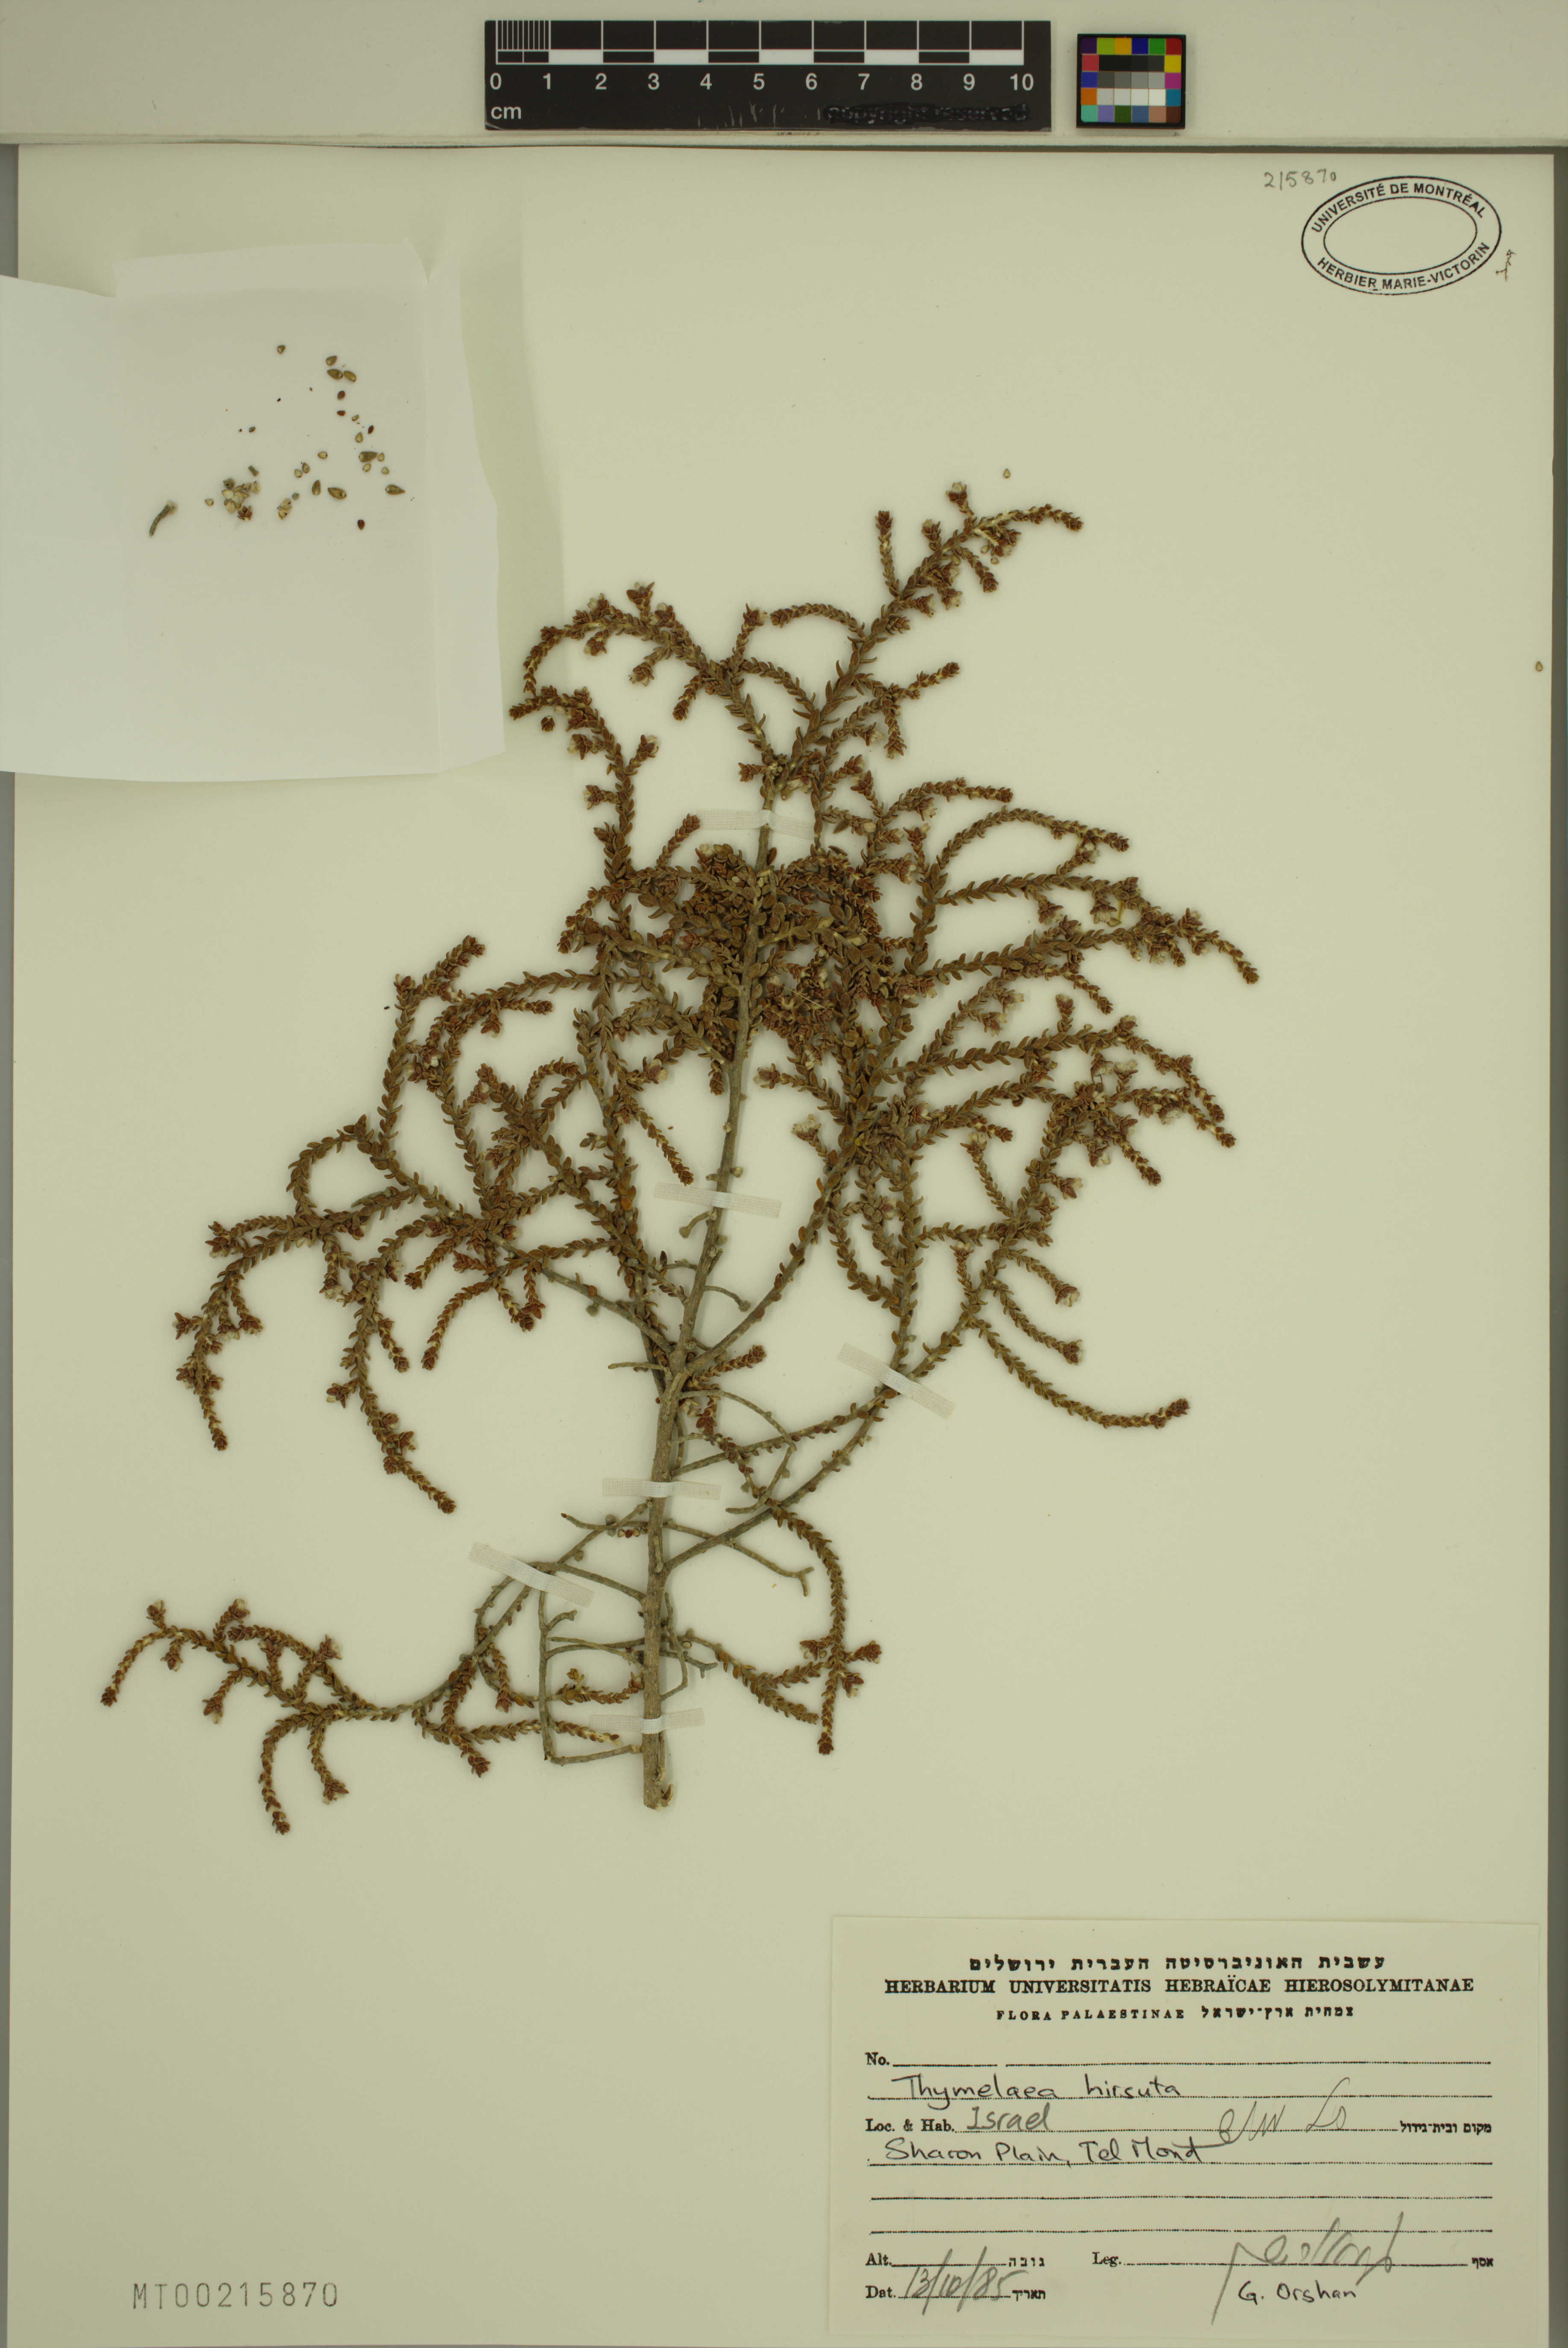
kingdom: Plantae
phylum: Tracheophyta
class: Magnoliopsida
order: Malvales
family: Thymelaeaceae
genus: Thymelaea
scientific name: Thymelaea hirsuta
